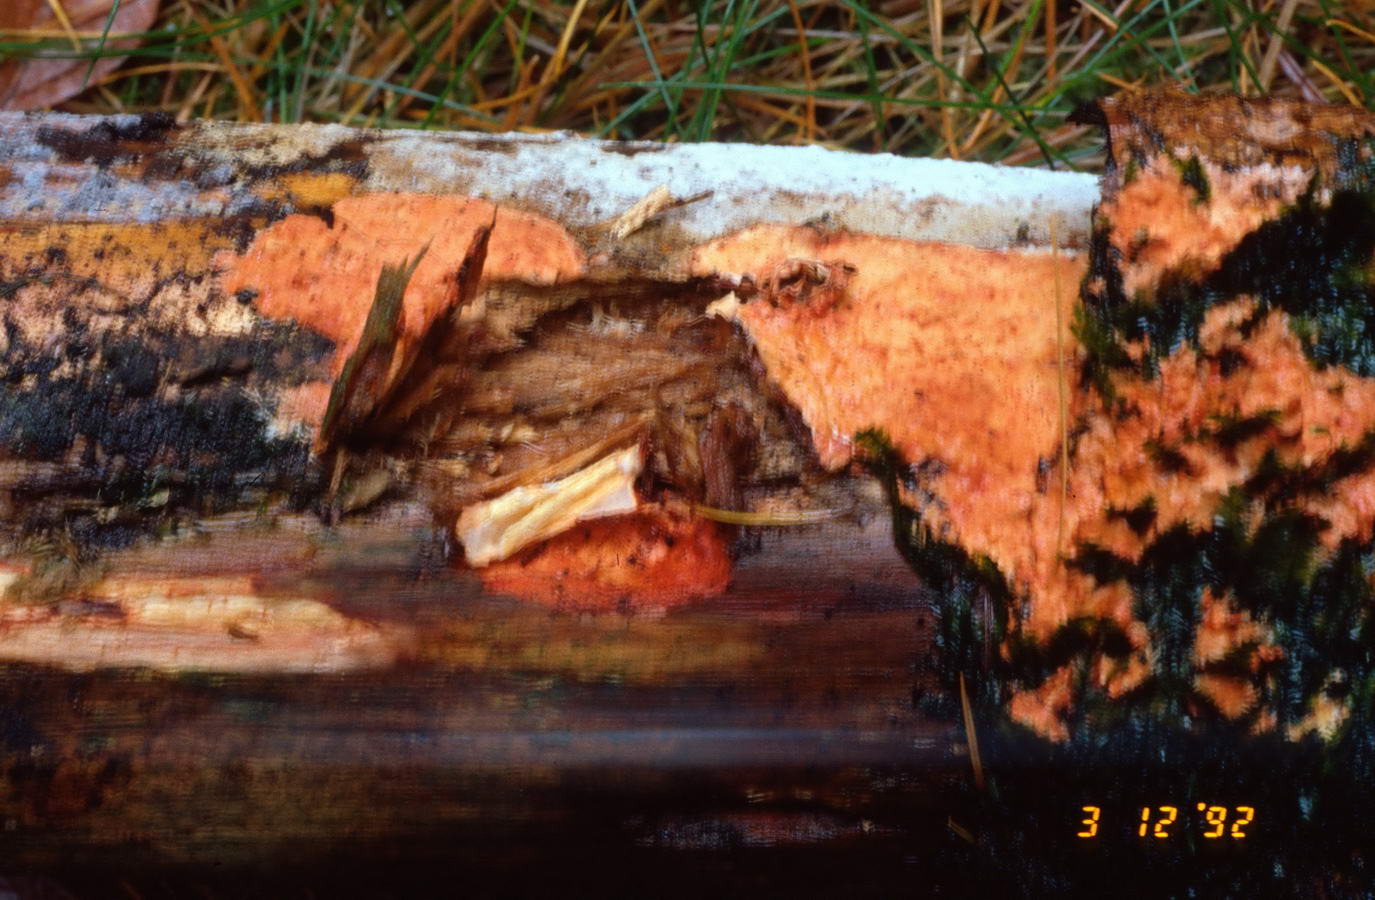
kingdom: Fungi
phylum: Basidiomycota
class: Agaricomycetes
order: Polyporales
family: Phanerochaetaceae
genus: Atheliachaete
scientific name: Atheliachaete sanguinea
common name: rødmende randtråd
